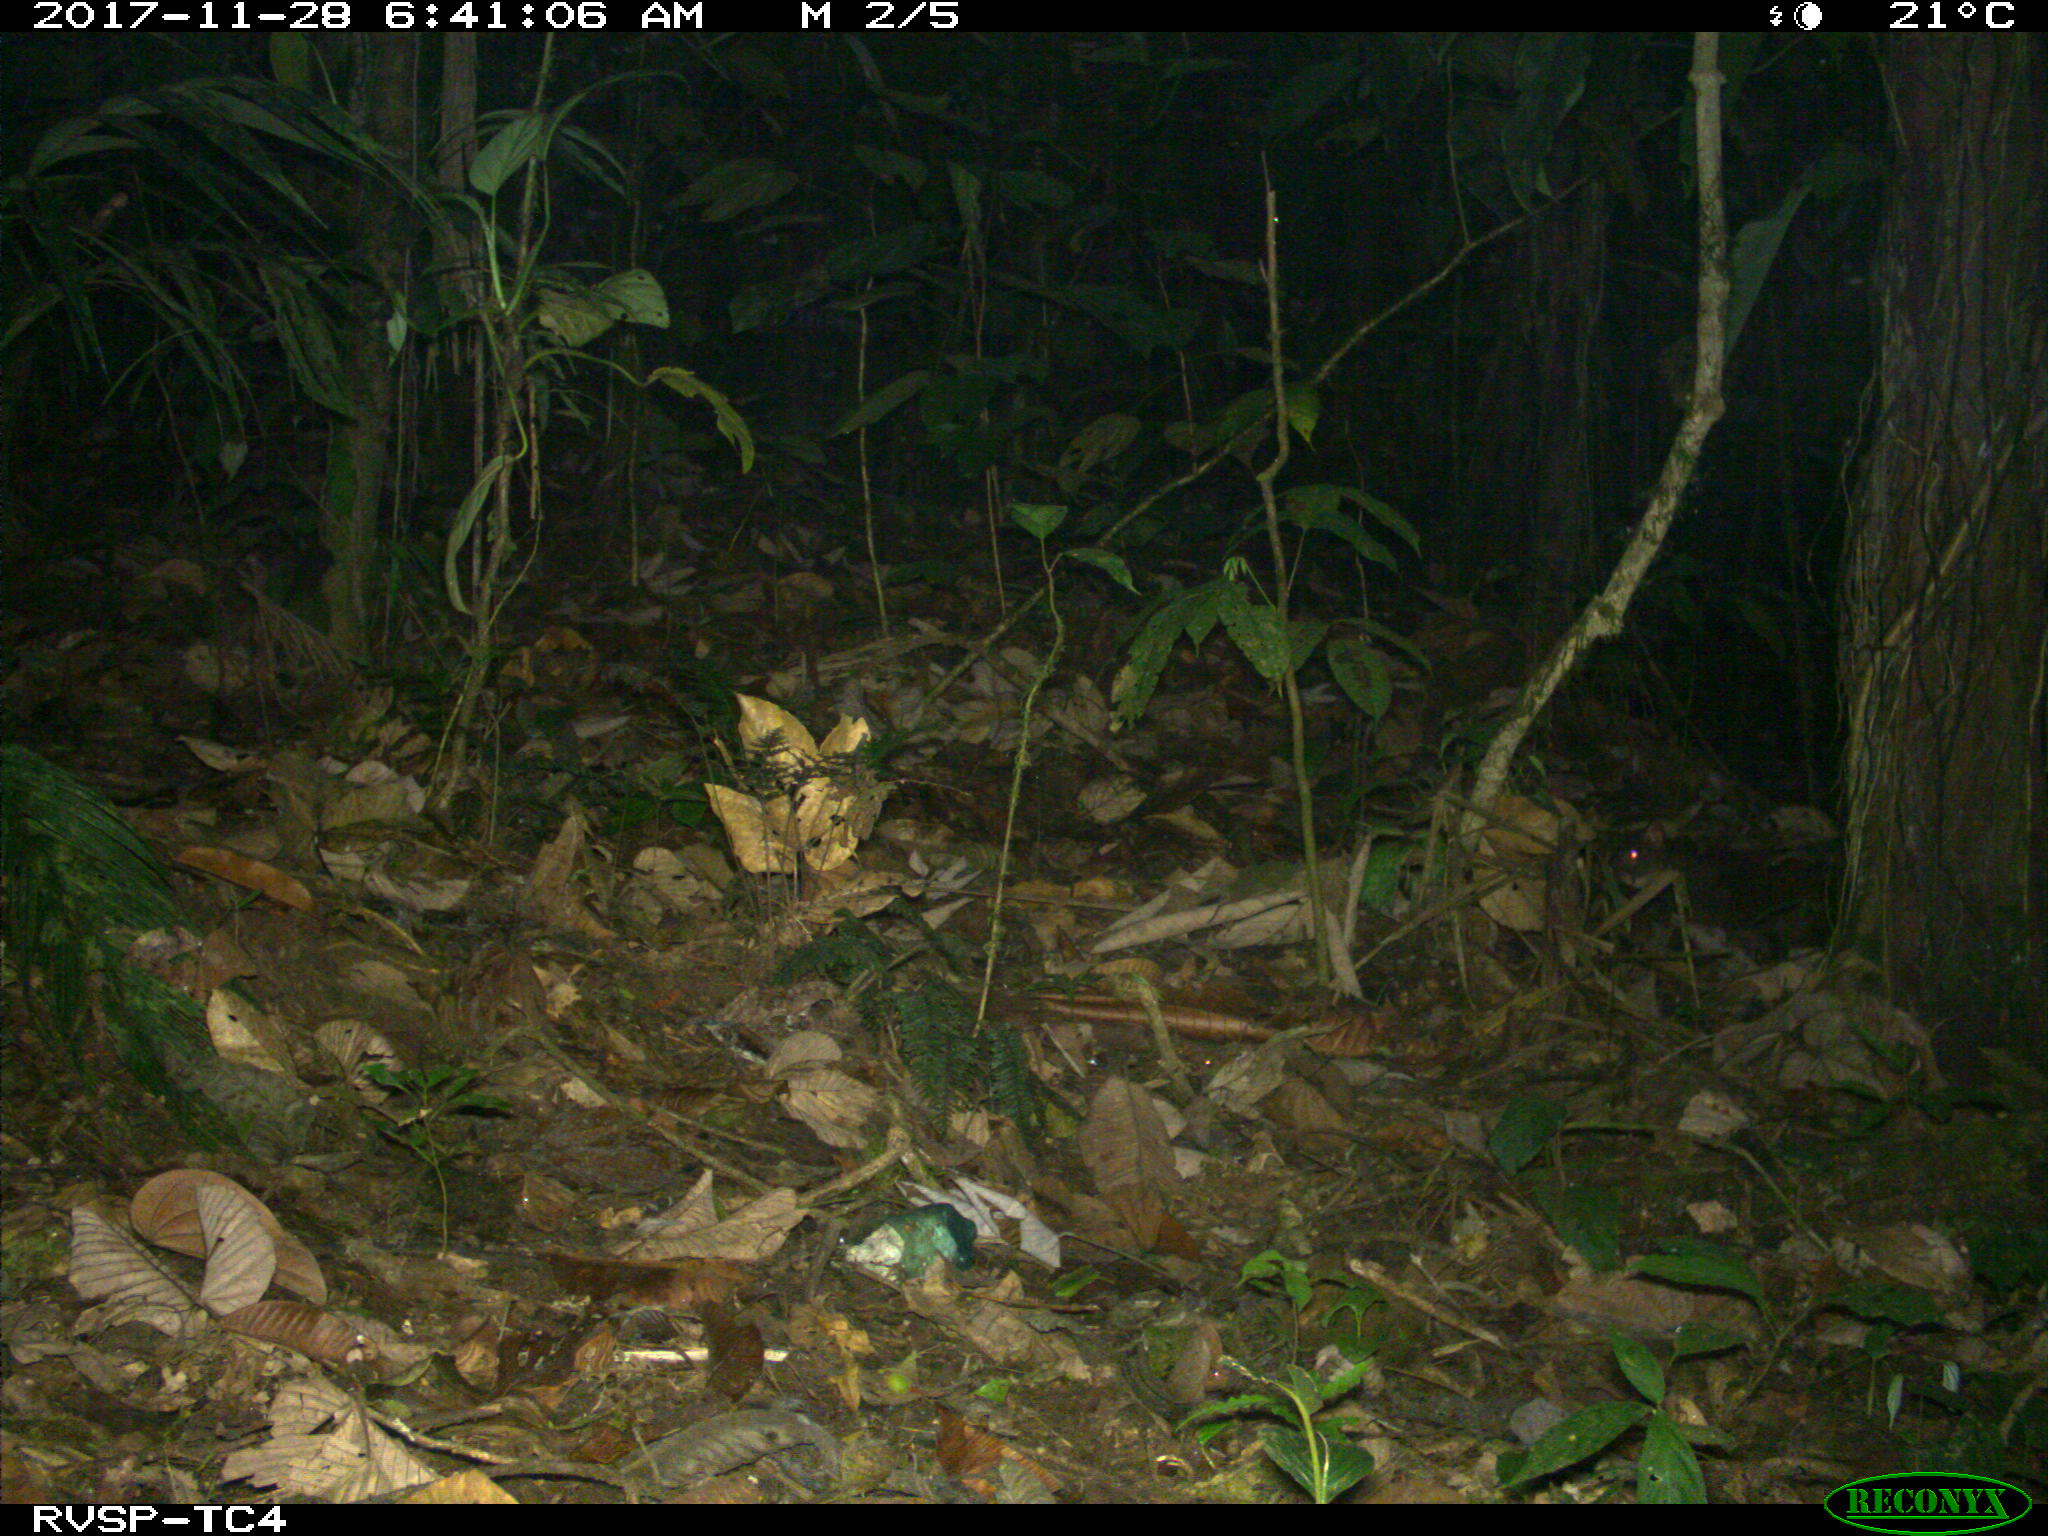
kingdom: Animalia
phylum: Chordata
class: Mammalia
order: Rodentia
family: Cuniculidae
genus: Cuniculus
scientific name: Cuniculus paca
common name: Lowland paca
